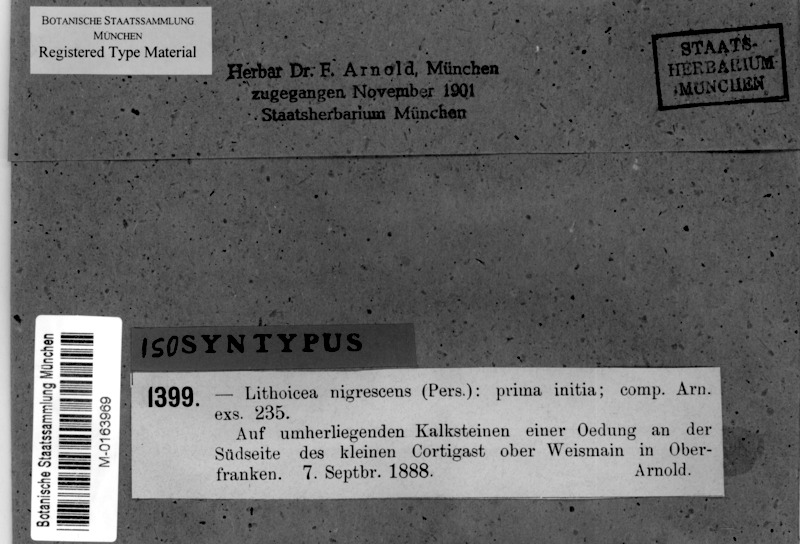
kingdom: Fungi
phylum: Ascomycota
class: Eurotiomycetes
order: Verrucariales
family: Verrucariaceae
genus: Verrucaria
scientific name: Verrucaria nigrescens
